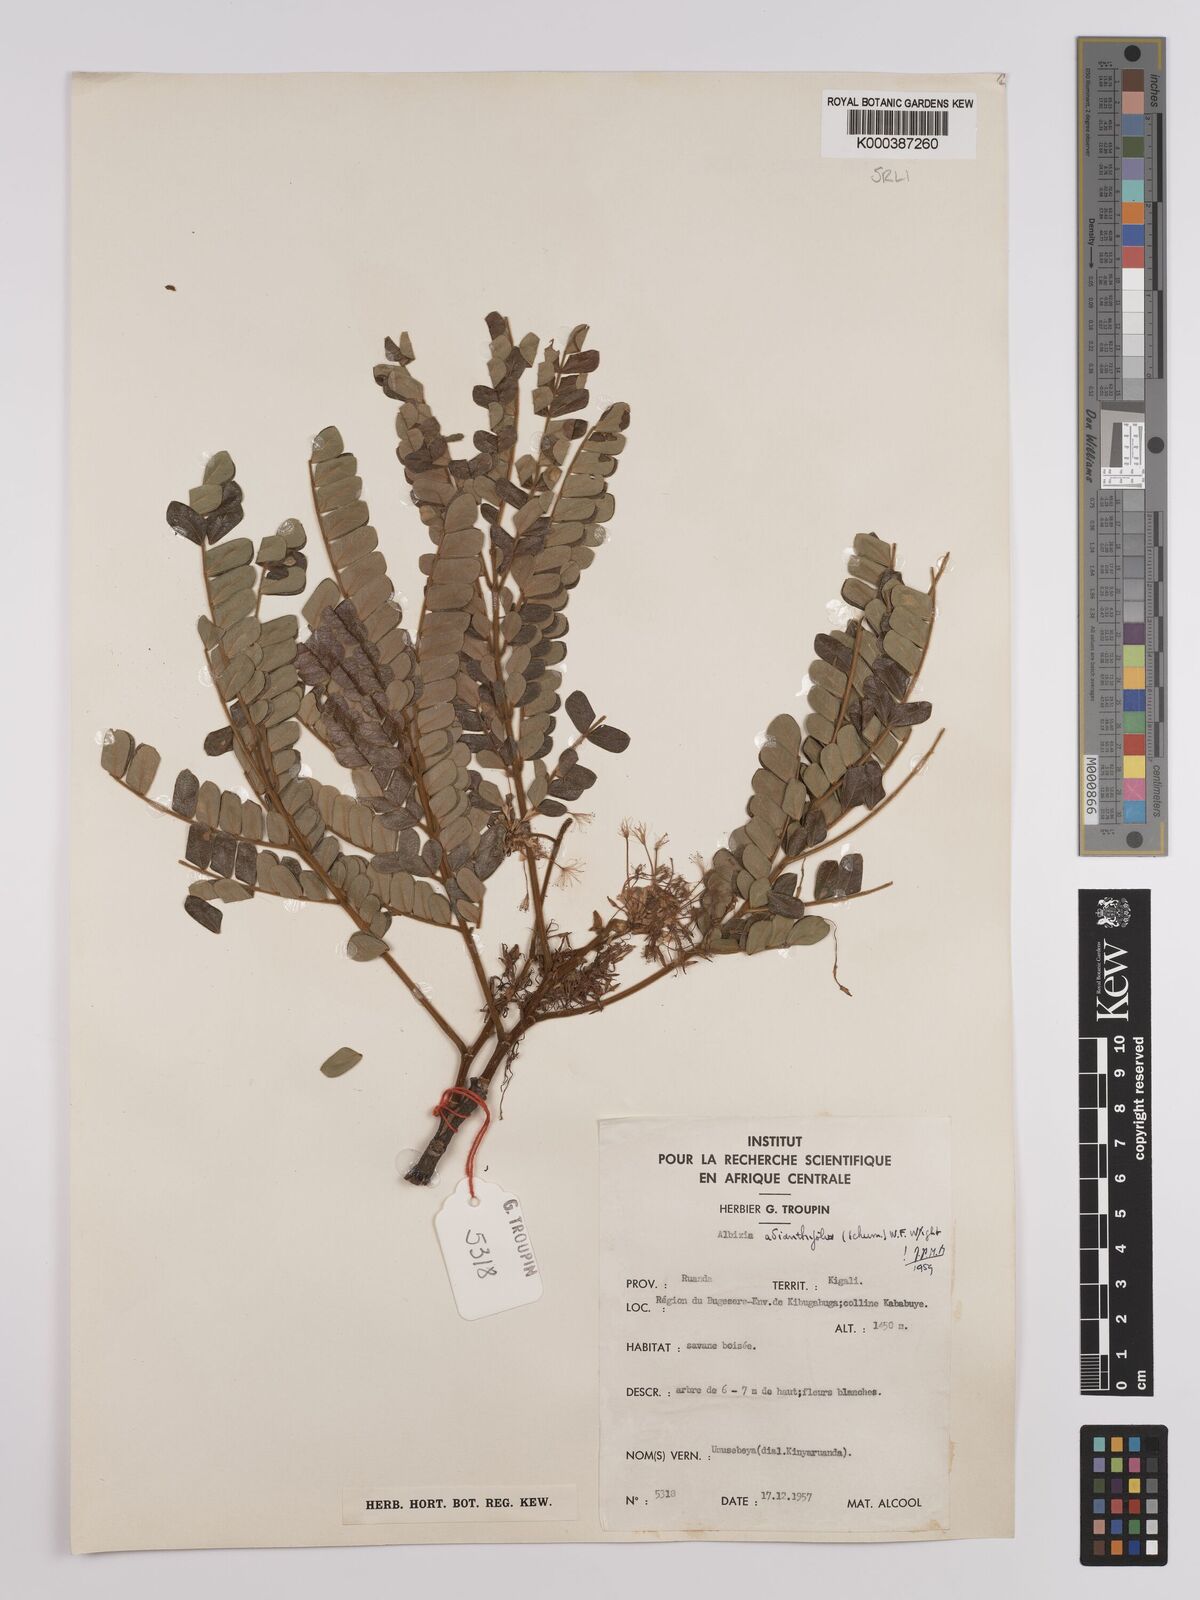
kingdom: Plantae
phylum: Tracheophyta
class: Magnoliopsida
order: Fabales
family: Fabaceae
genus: Albizia
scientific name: Albizia adianthifolia
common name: West african albizia
